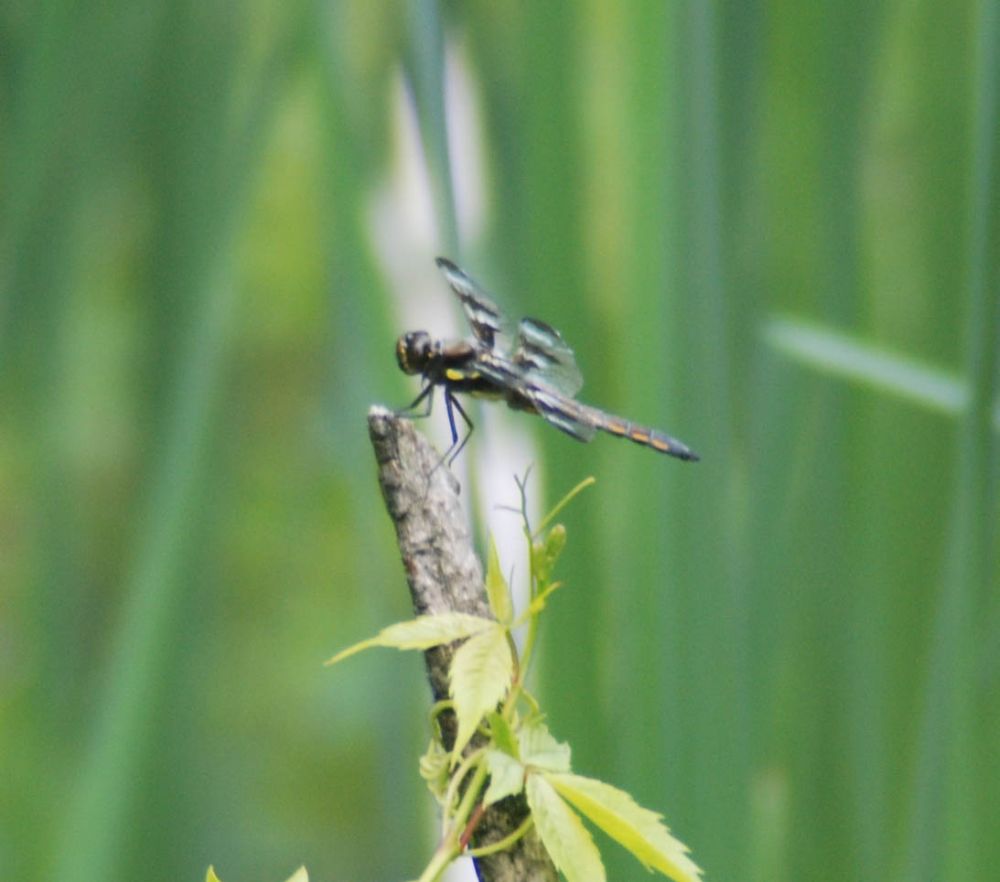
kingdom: Animalia
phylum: Arthropoda
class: Insecta
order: Odonata
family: Libellulidae
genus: Libellula
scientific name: Libellula pulchella
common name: Twelve-spotted skimmer
